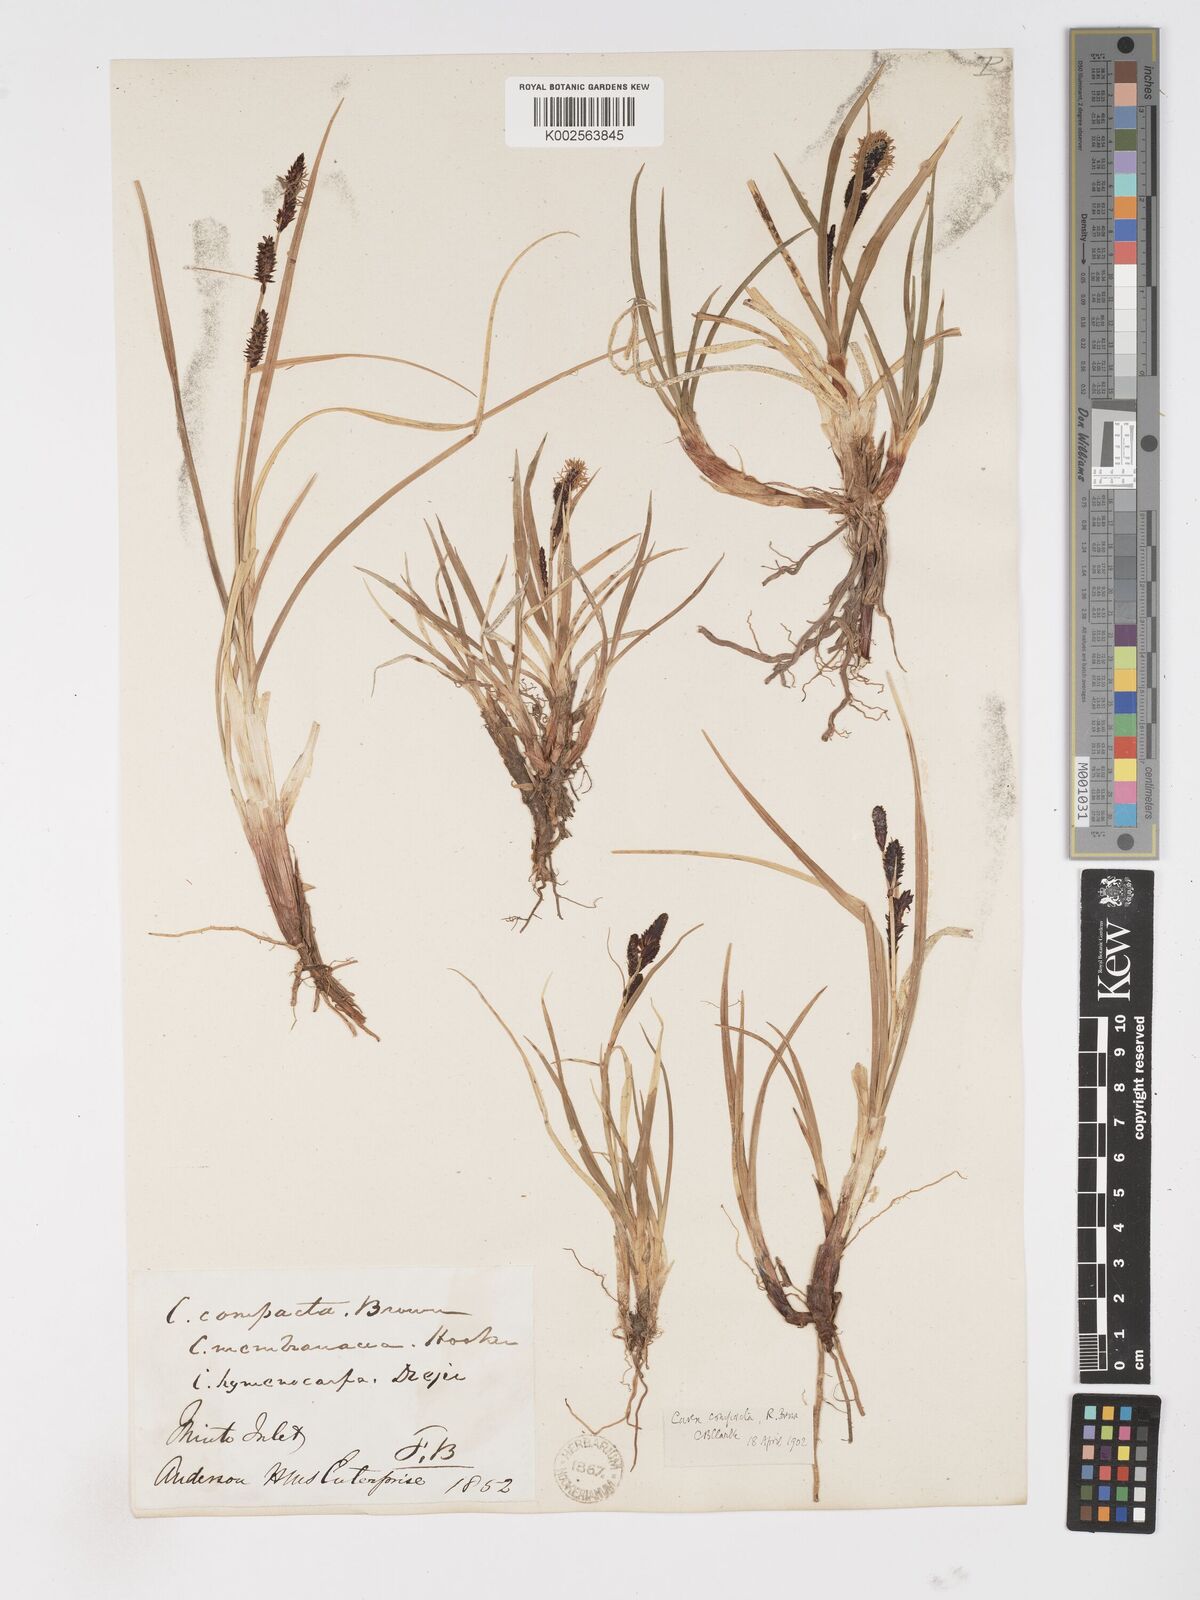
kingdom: Plantae
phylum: Tracheophyta
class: Liliopsida
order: Poales
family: Cyperaceae
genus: Carex
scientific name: Carex membranacea
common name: Fragile sedge
